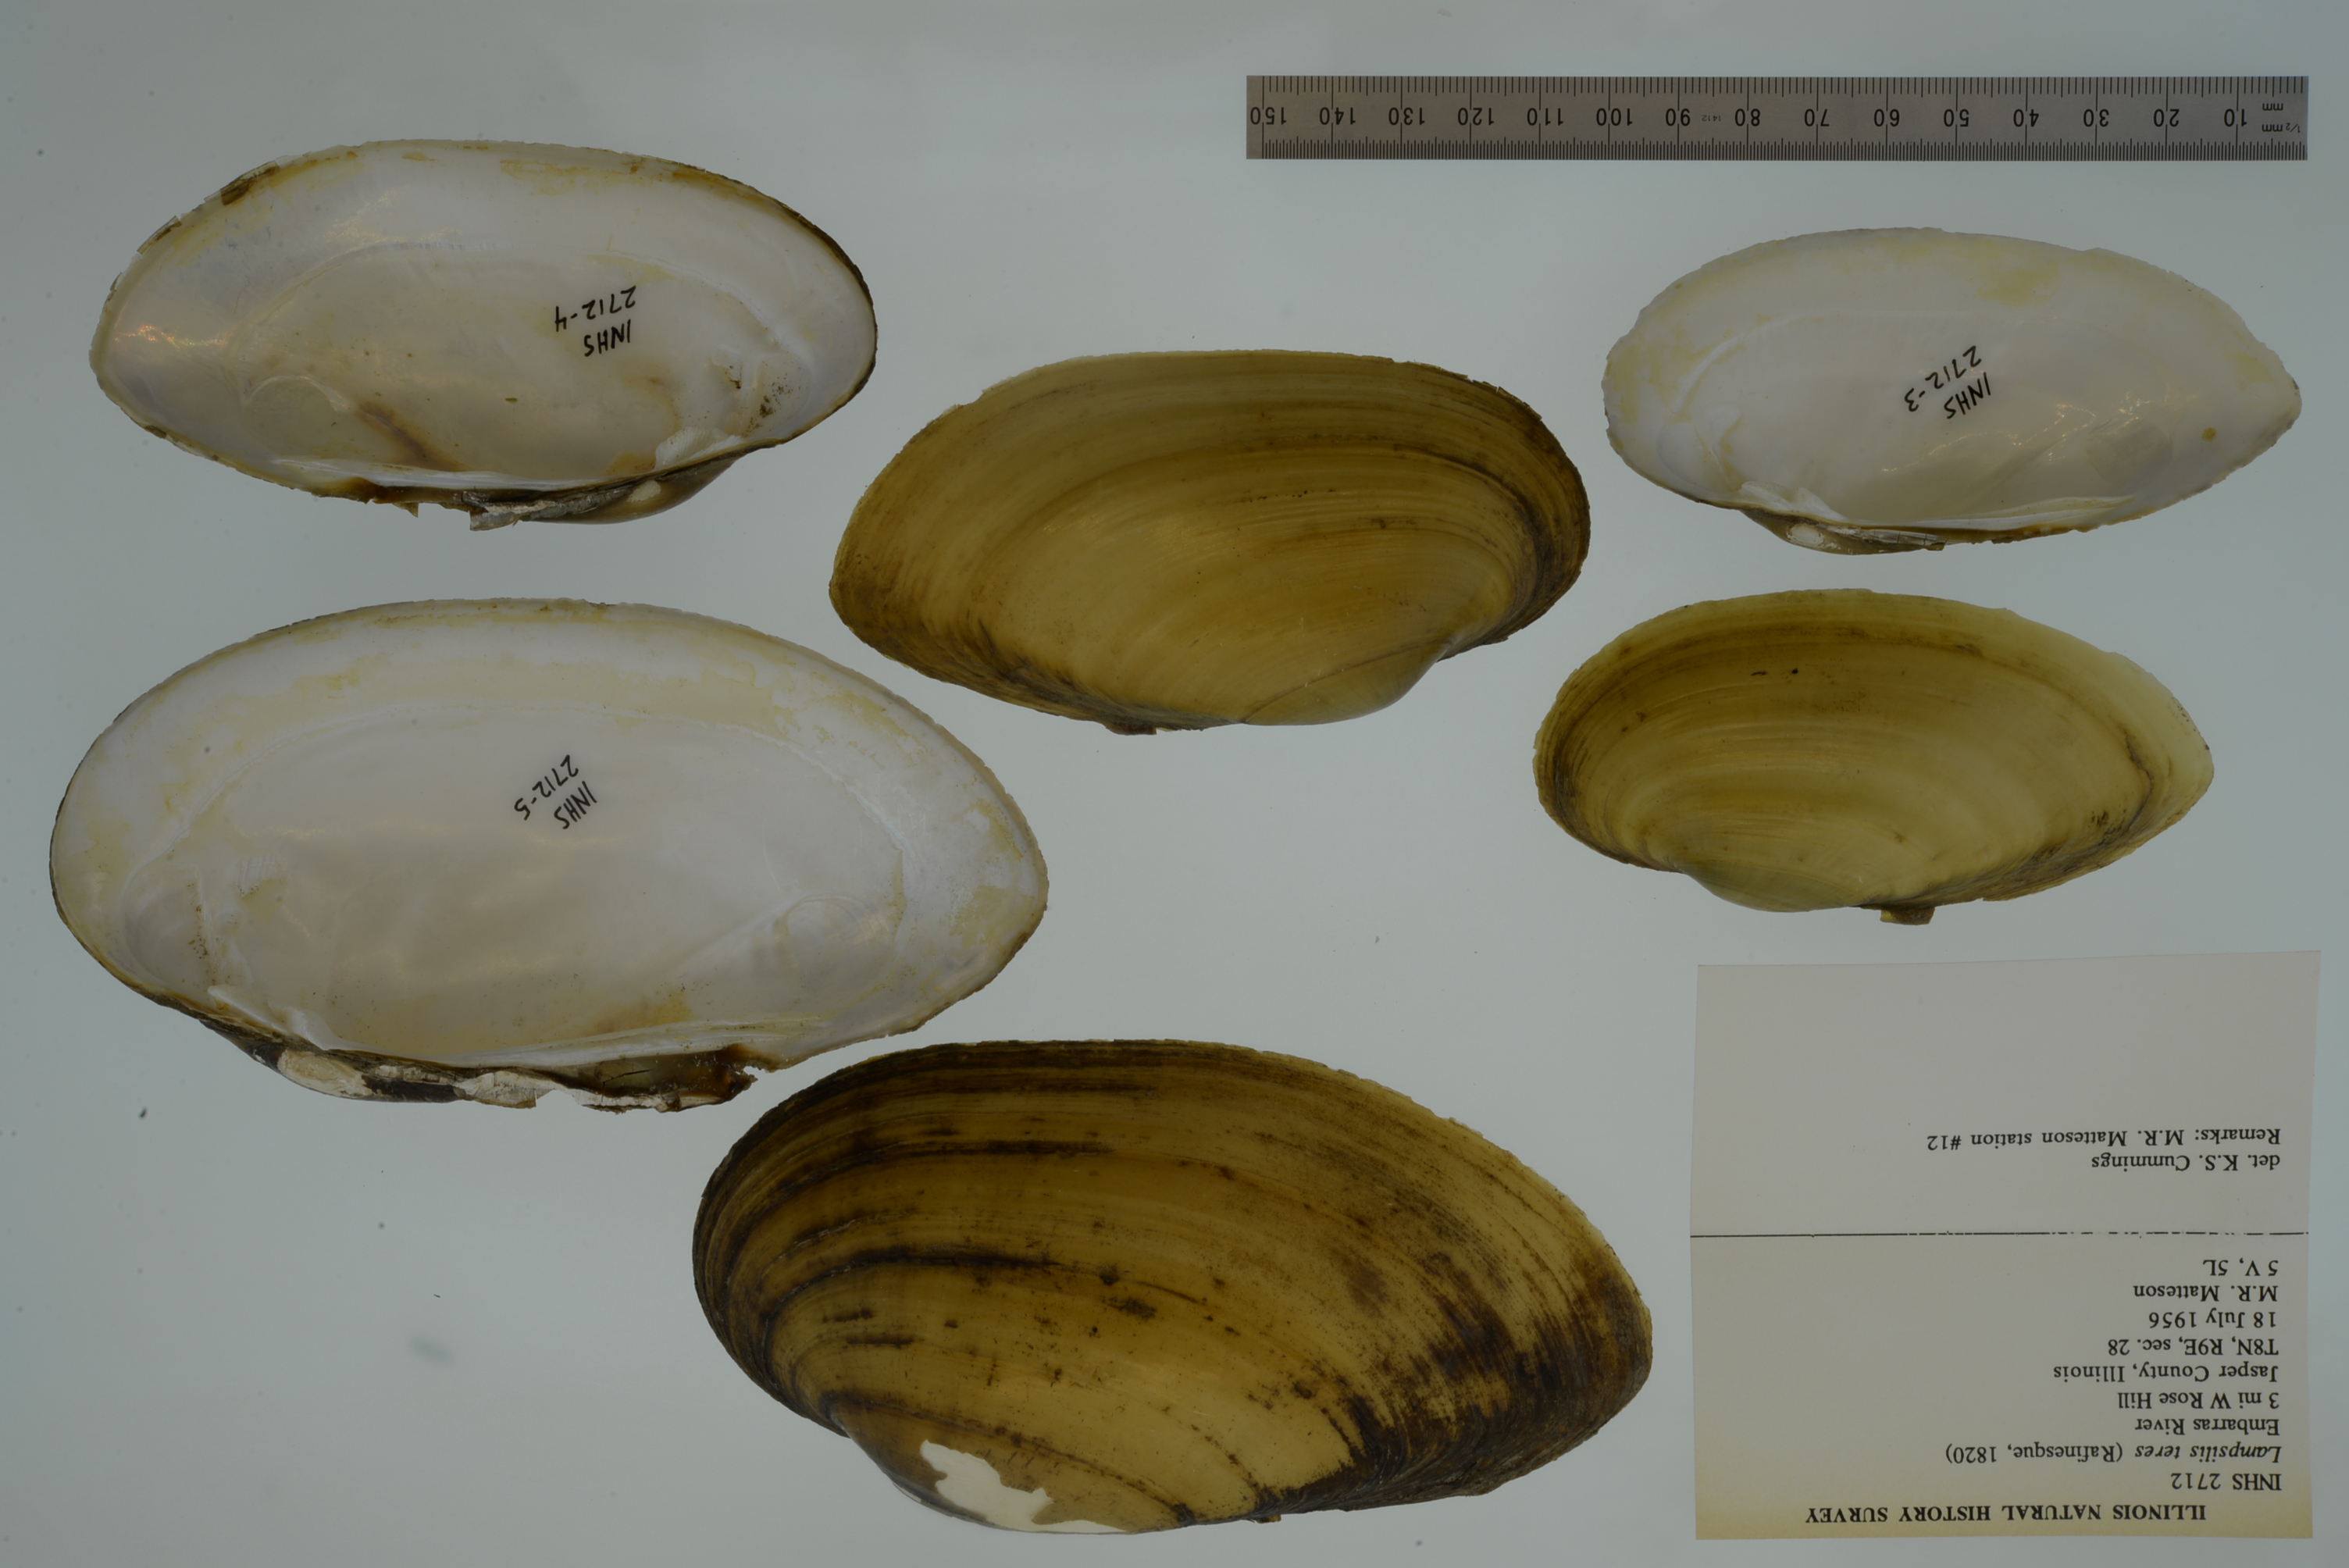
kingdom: Animalia
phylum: Mollusca
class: Bivalvia
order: Unionida
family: Unionidae
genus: Lampsilis
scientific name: Lampsilis sietmani
